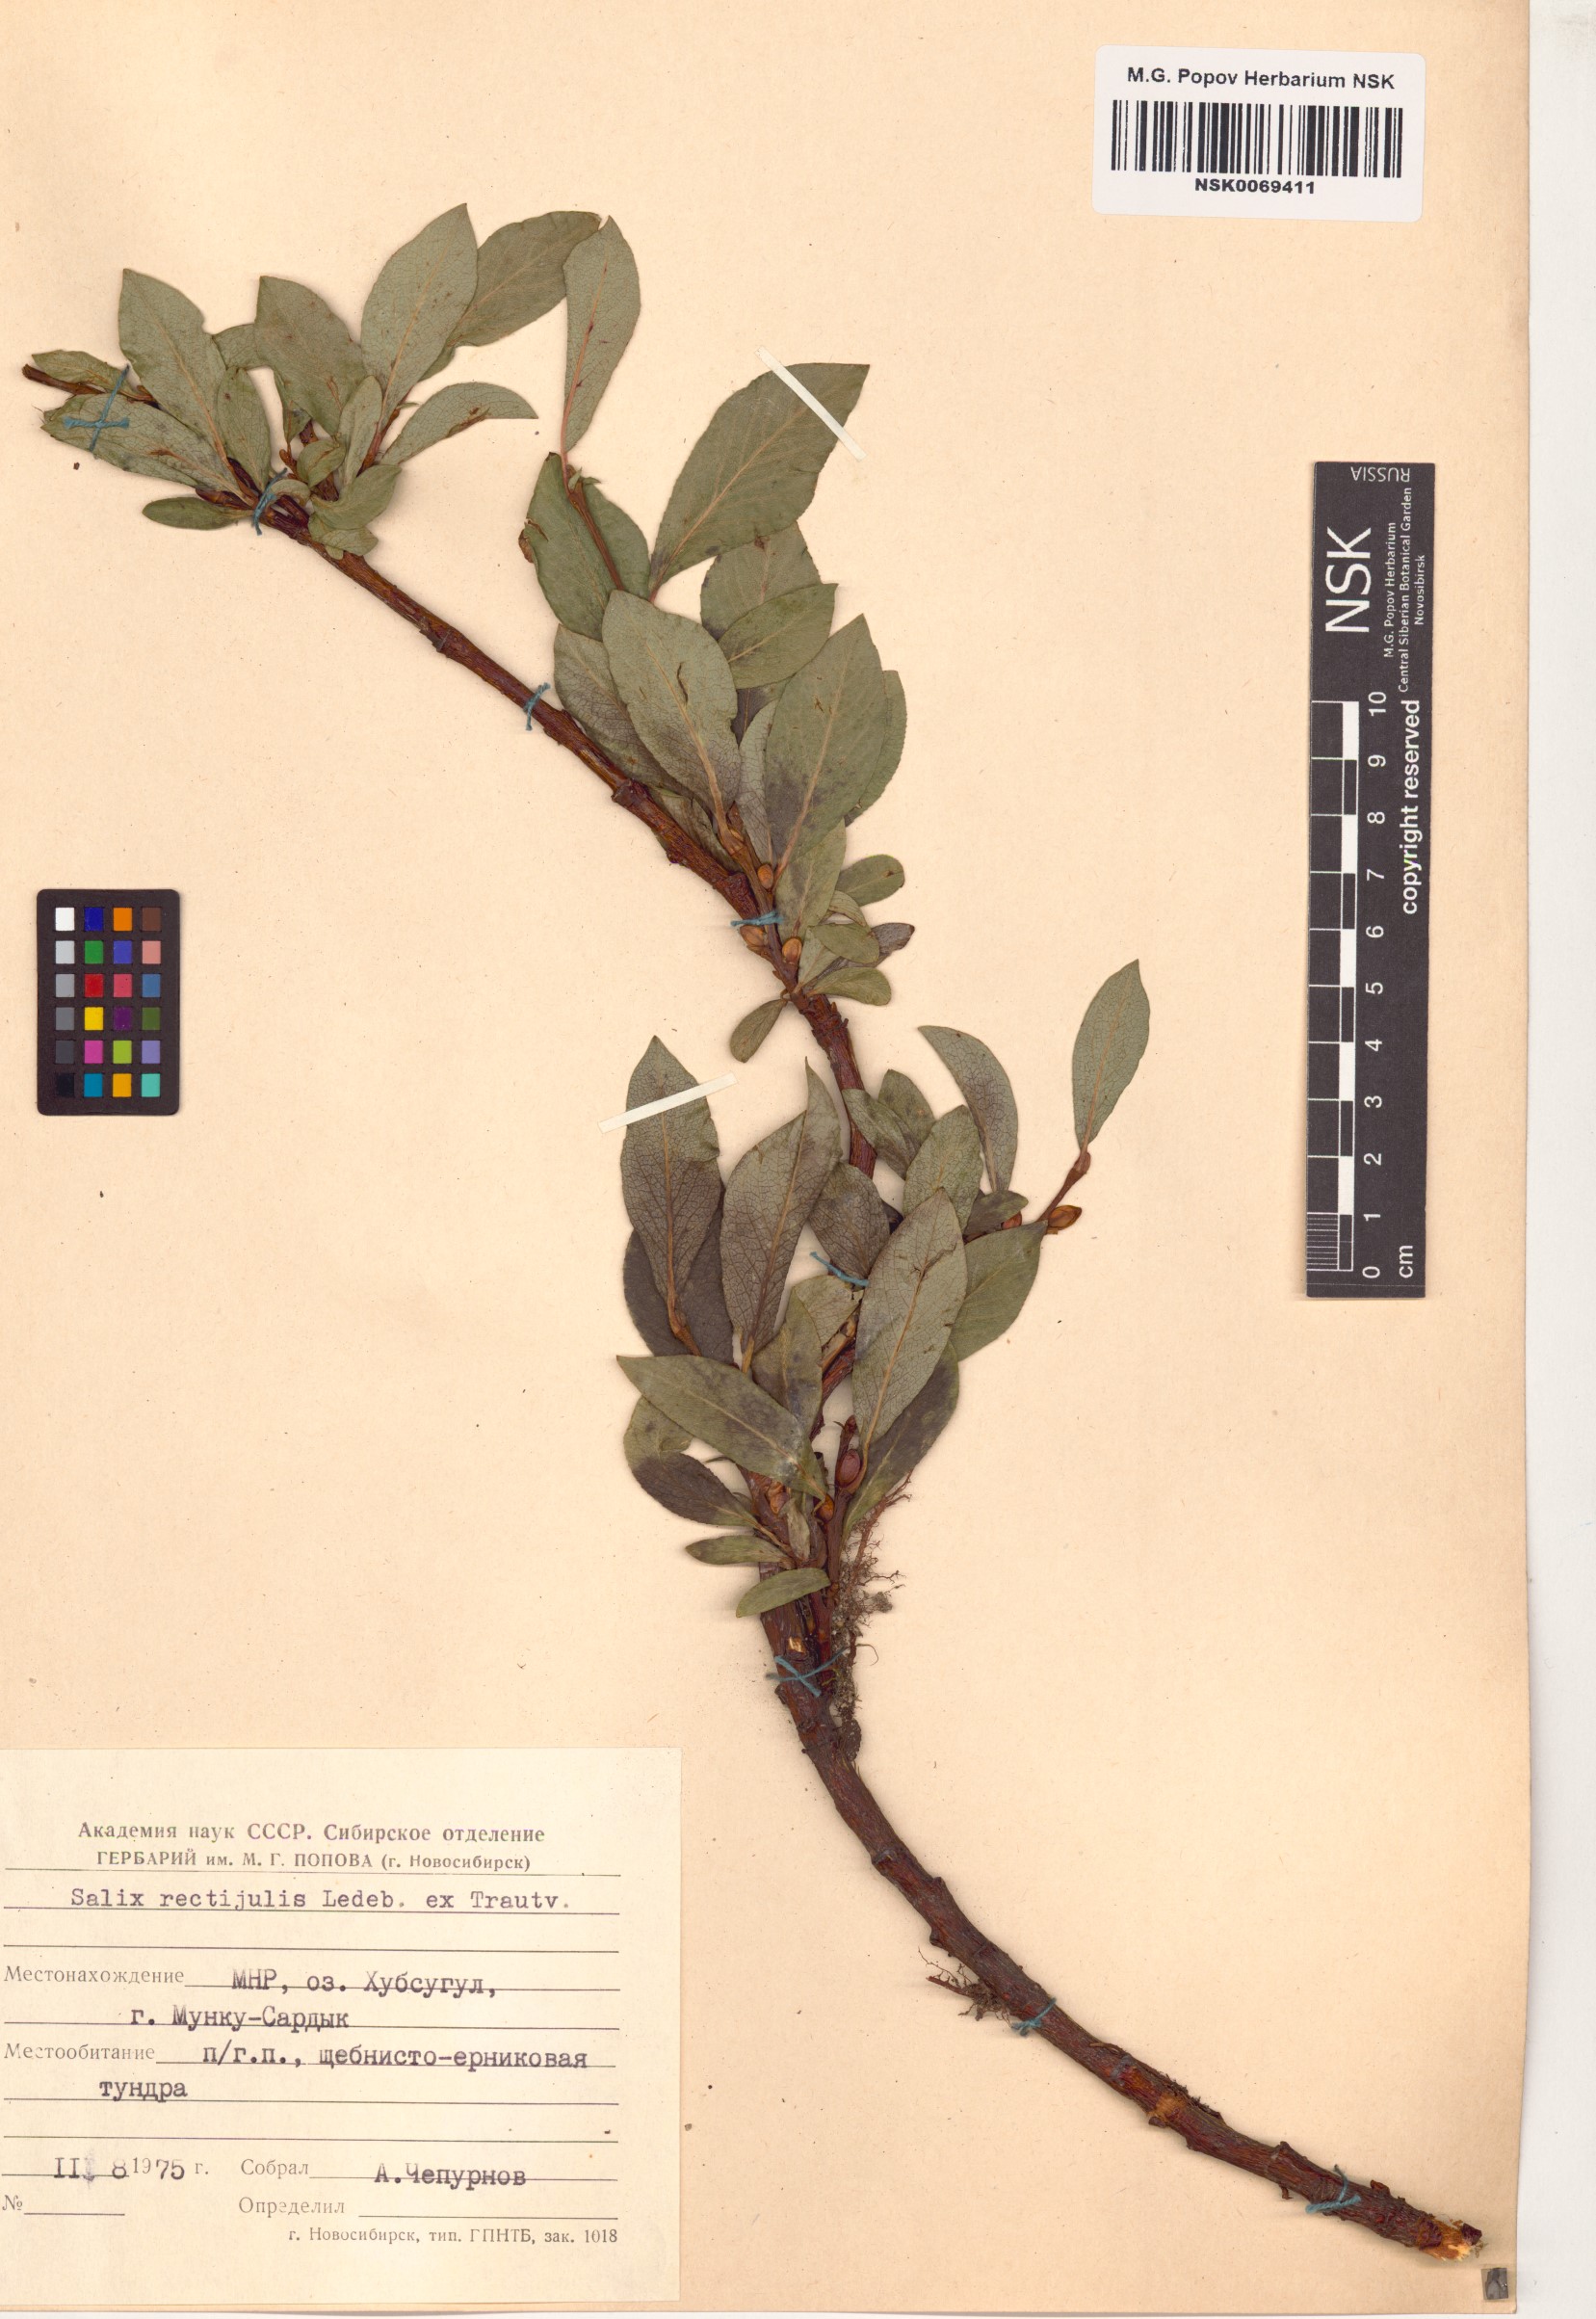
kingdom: Plantae
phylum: Tracheophyta
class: Magnoliopsida
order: Malpighiales
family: Salicaceae
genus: Salix
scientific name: Salix rectijulis
